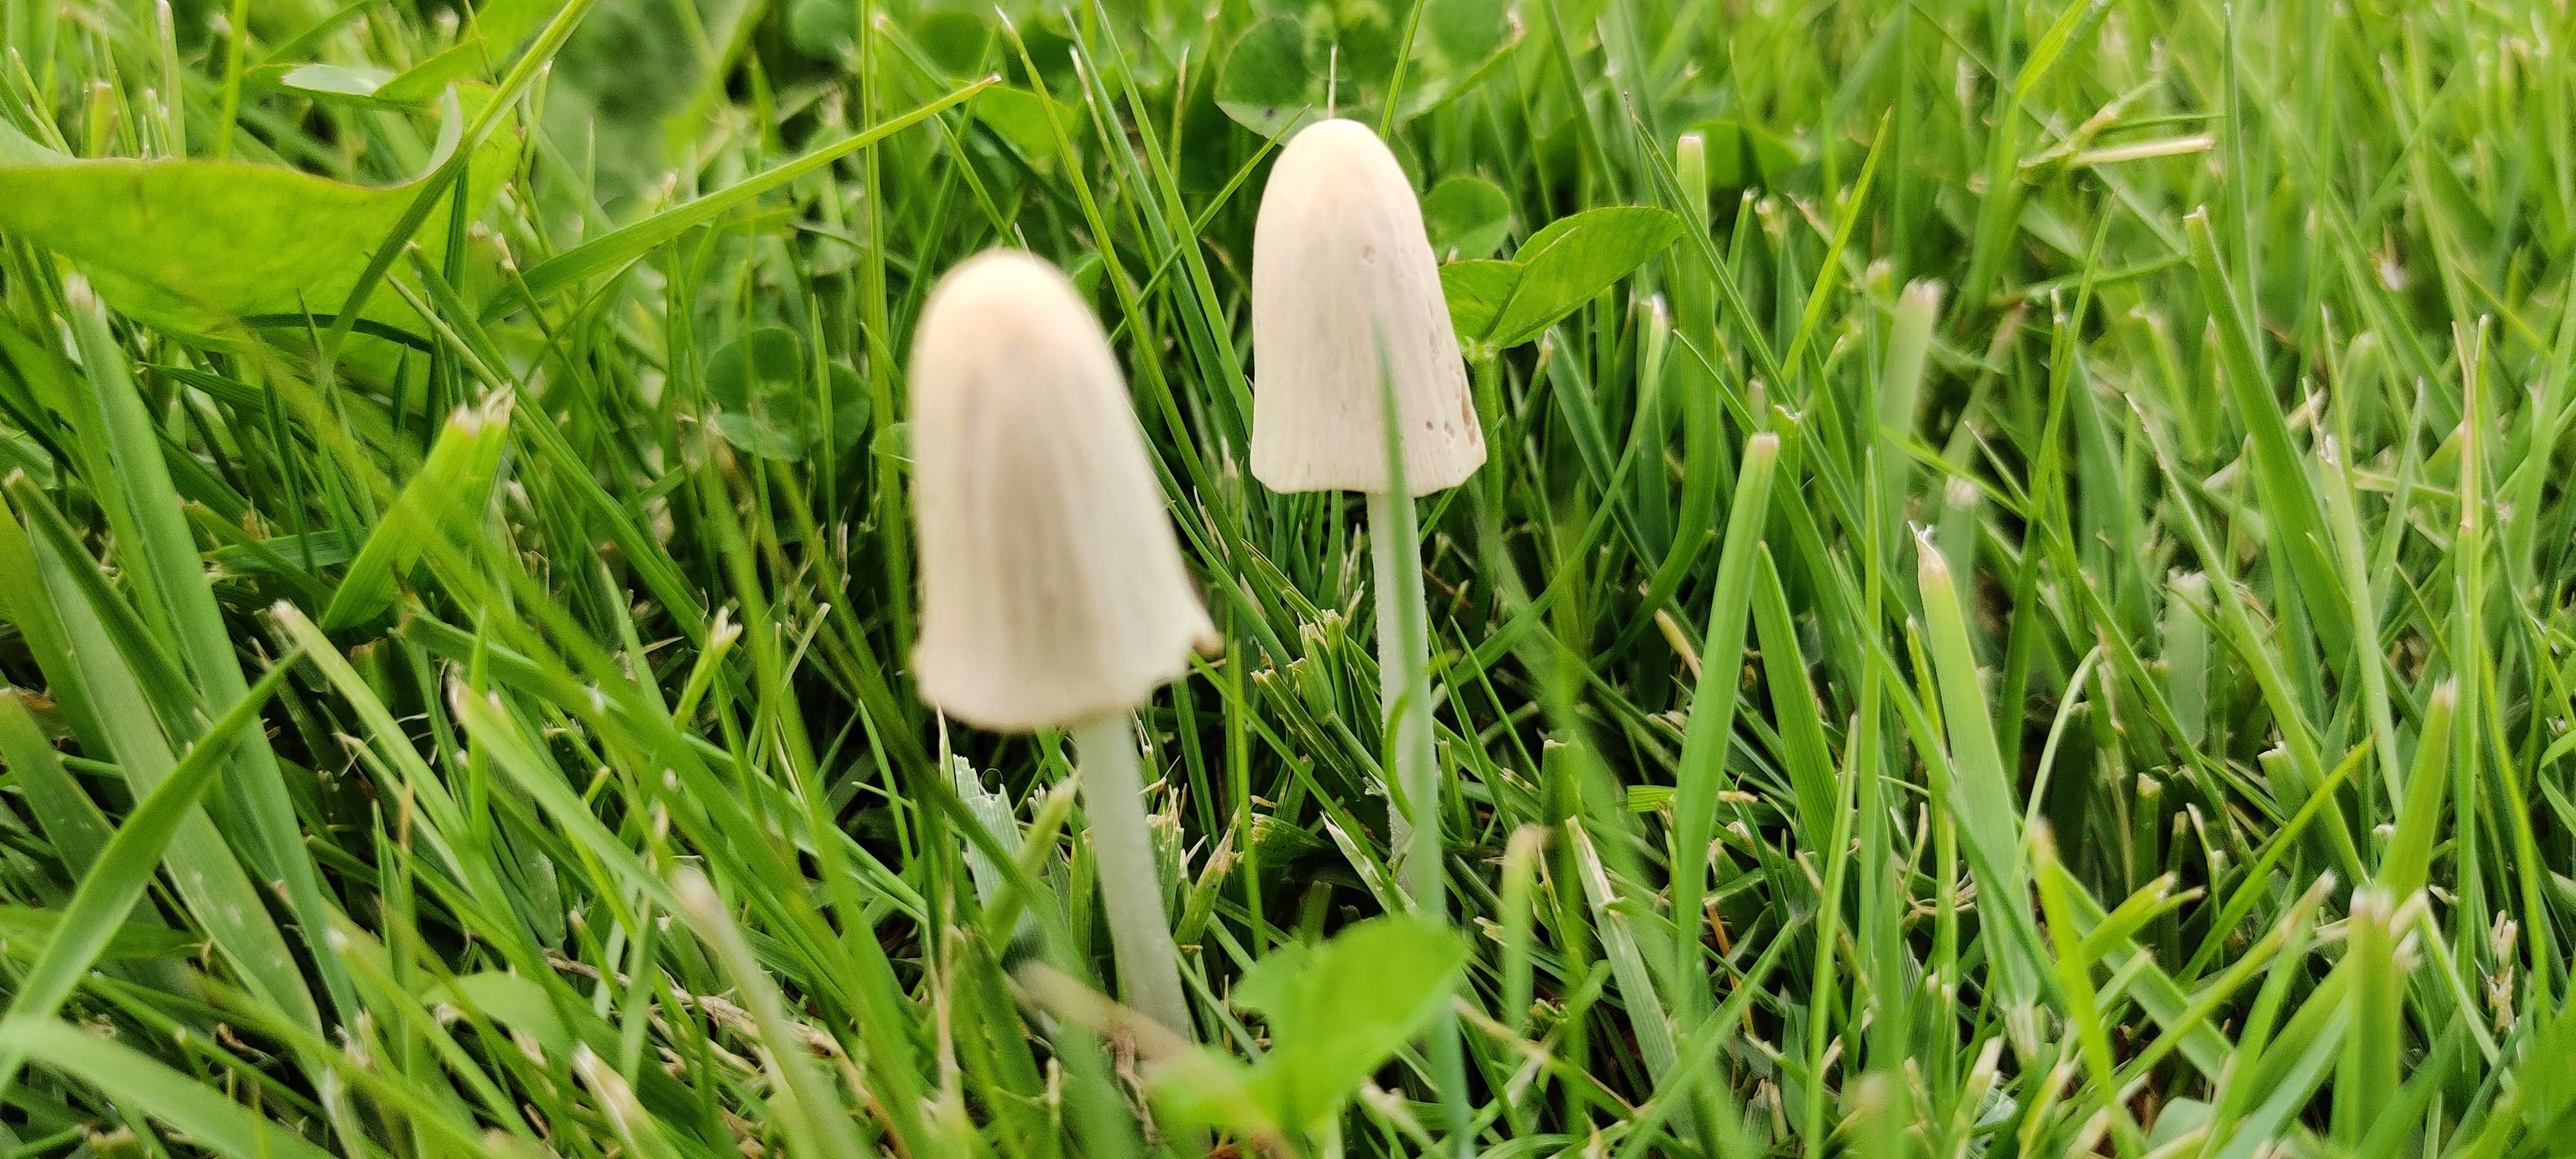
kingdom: Fungi
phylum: Basidiomycota
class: Agaricomycetes
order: Agaricales
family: Bolbitiaceae
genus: Conocybe
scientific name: Conocybe apala
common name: mælkehvid keglehat
